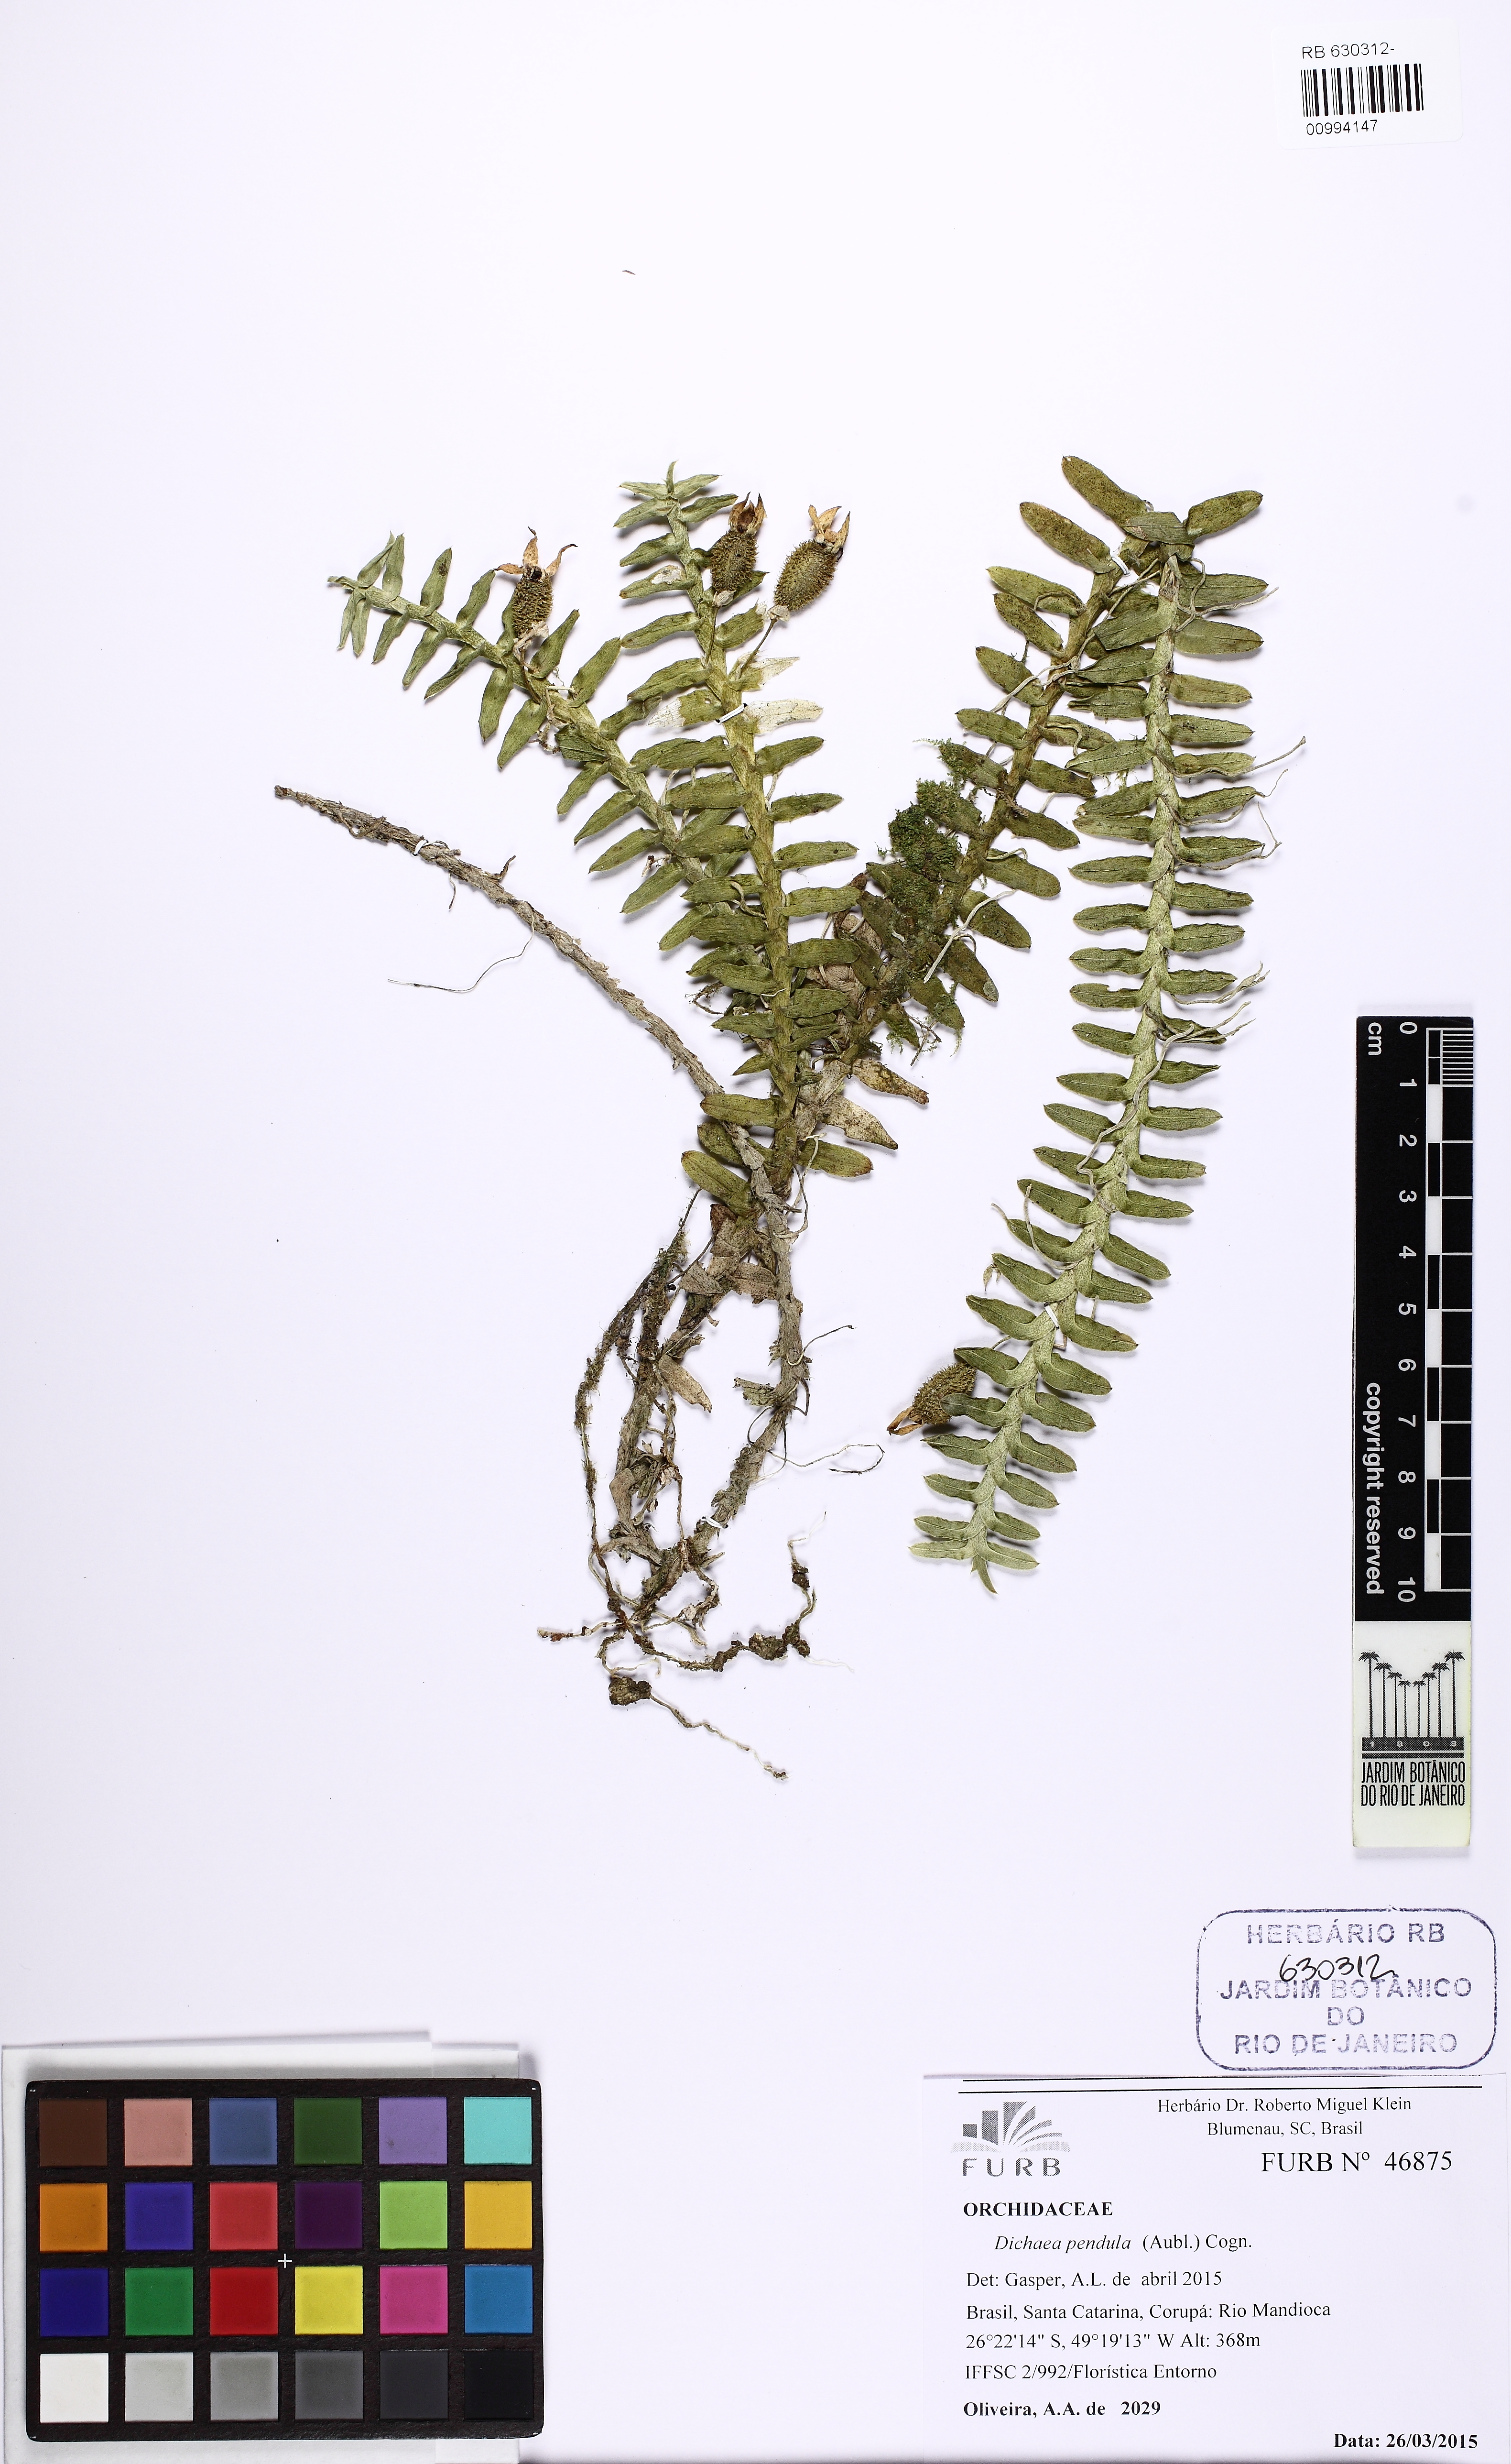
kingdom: Plantae
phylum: Tracheophyta
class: Liliopsida
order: Asparagales
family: Orchidaceae
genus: Dichaea
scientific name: Dichaea pendula
